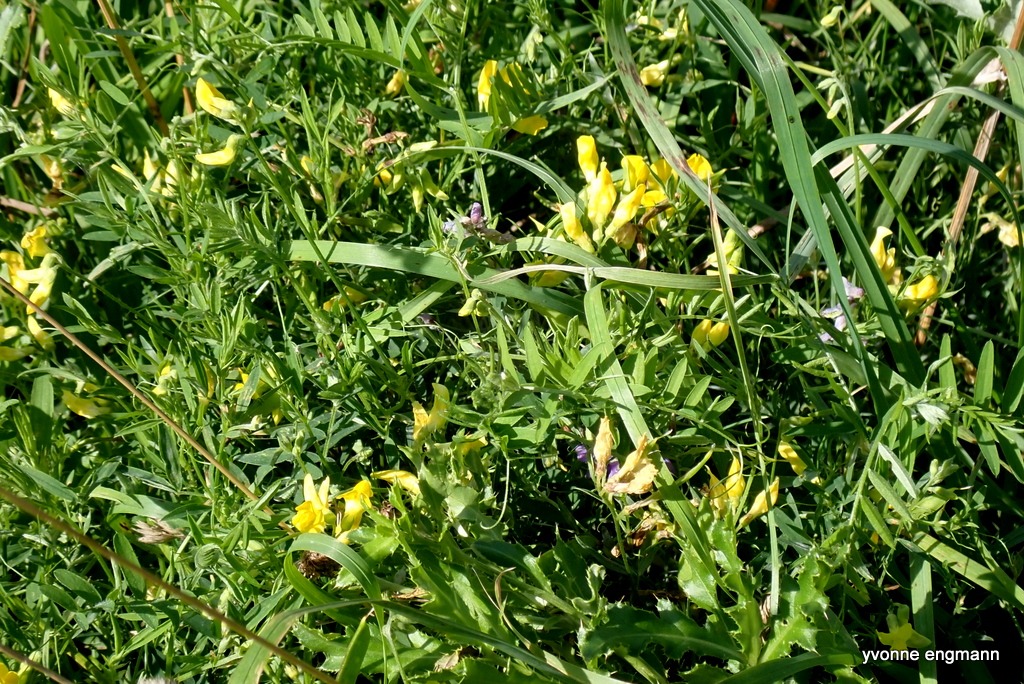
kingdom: Plantae
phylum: Tracheophyta
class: Magnoliopsida
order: Fabales
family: Fabaceae
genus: Lathyrus
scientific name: Lathyrus pratensis
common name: Gul fladbælg
